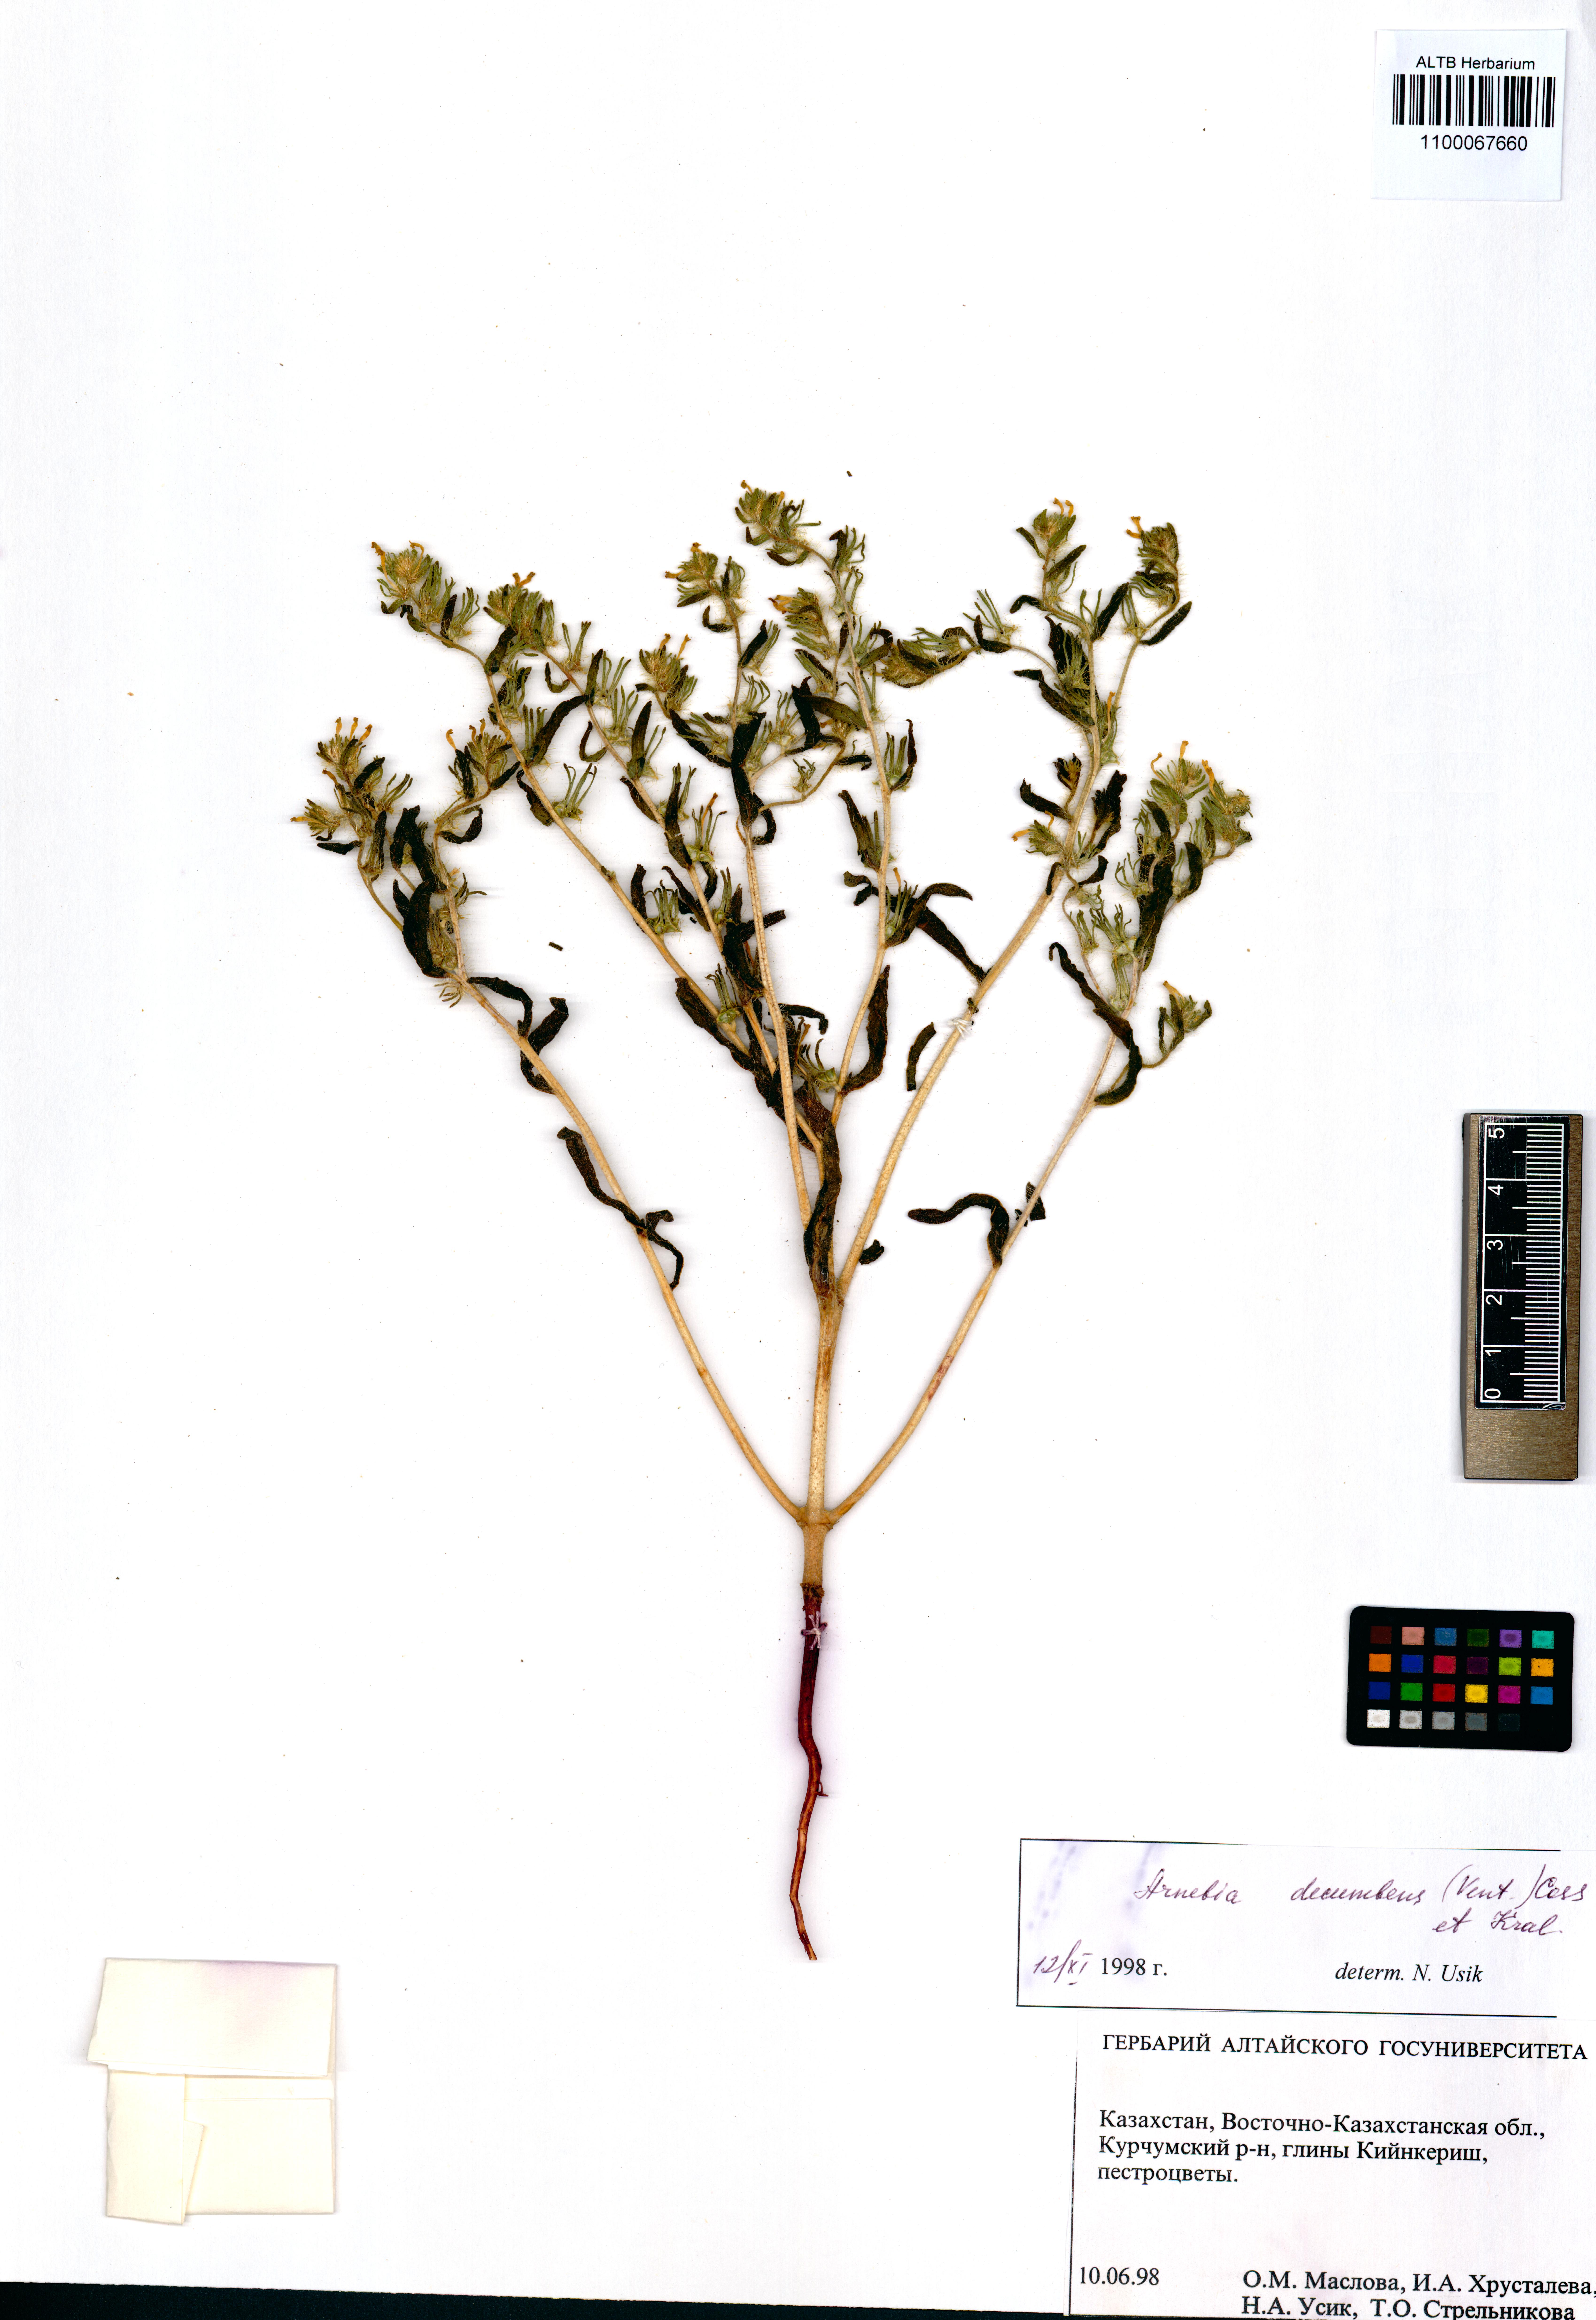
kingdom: Plantae
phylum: Tracheophyta
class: Magnoliopsida
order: Boraginales
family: Boraginaceae
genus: Arnebia
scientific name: Arnebia decumbens
